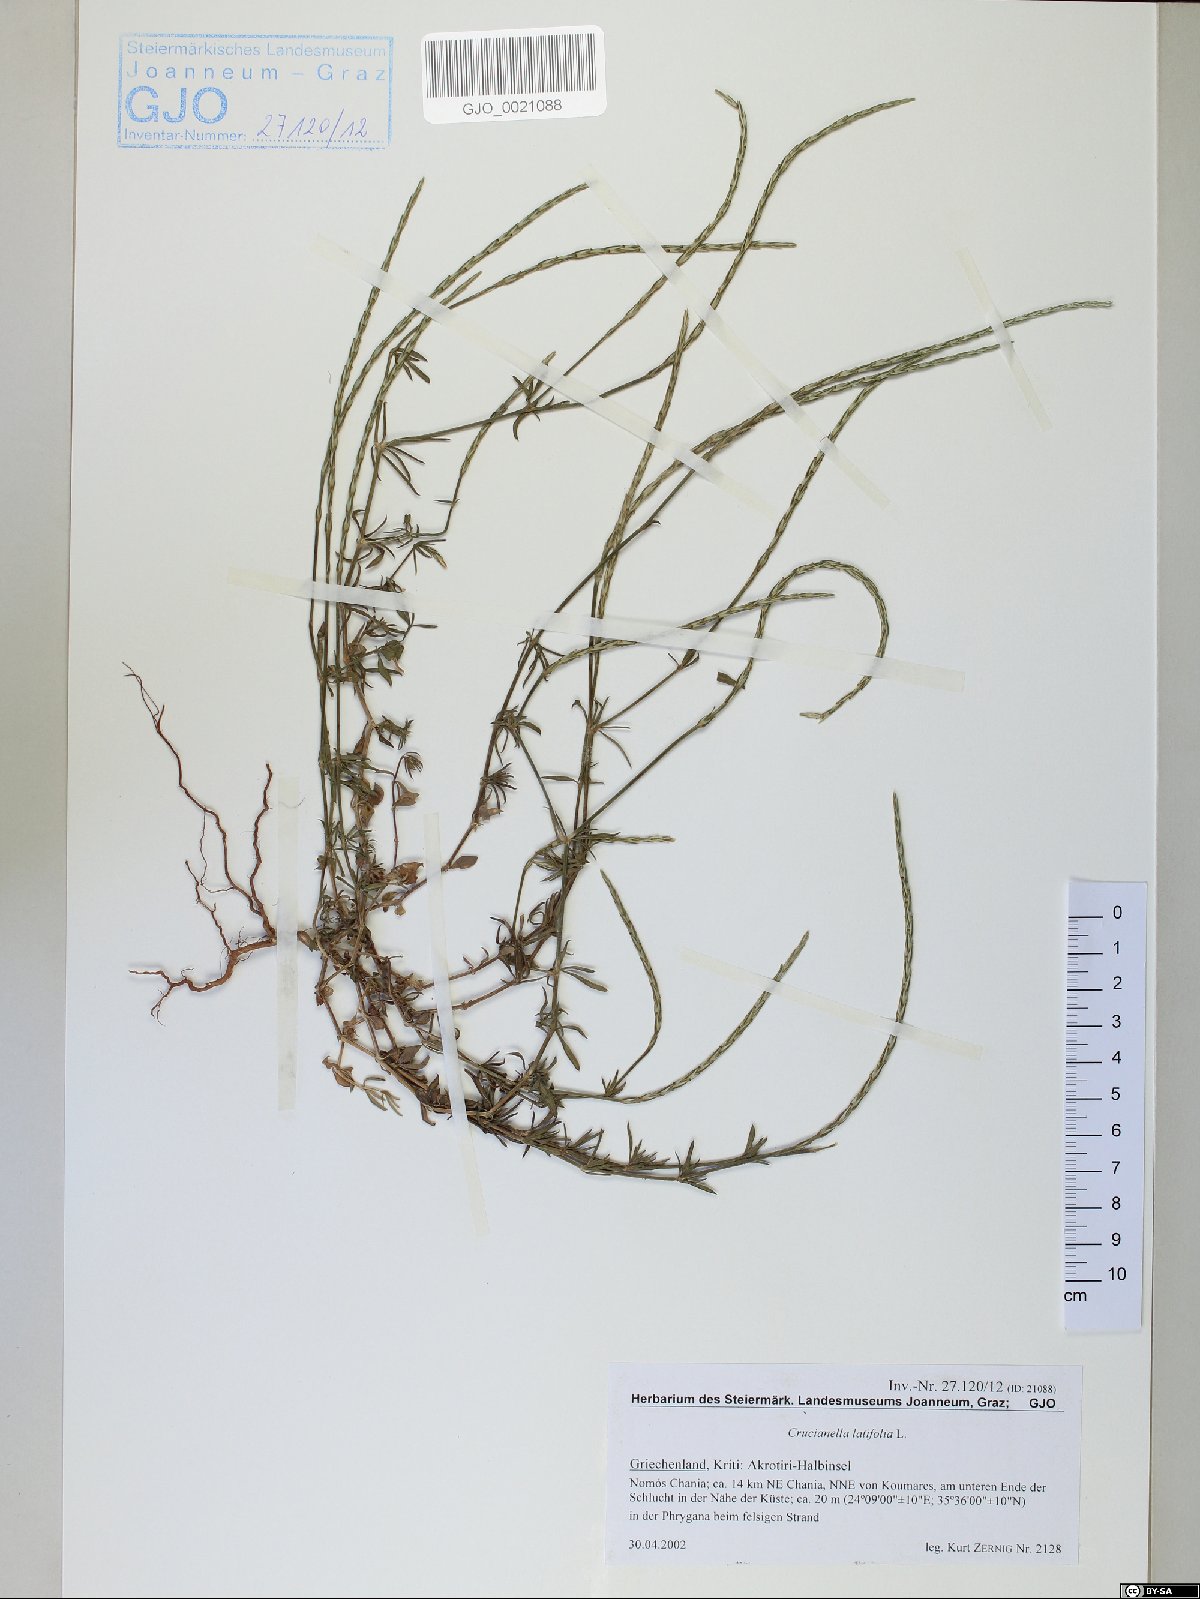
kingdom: Plantae
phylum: Tracheophyta
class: Magnoliopsida
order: Gentianales
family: Rubiaceae
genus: Crucianella
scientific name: Crucianella latifolia
